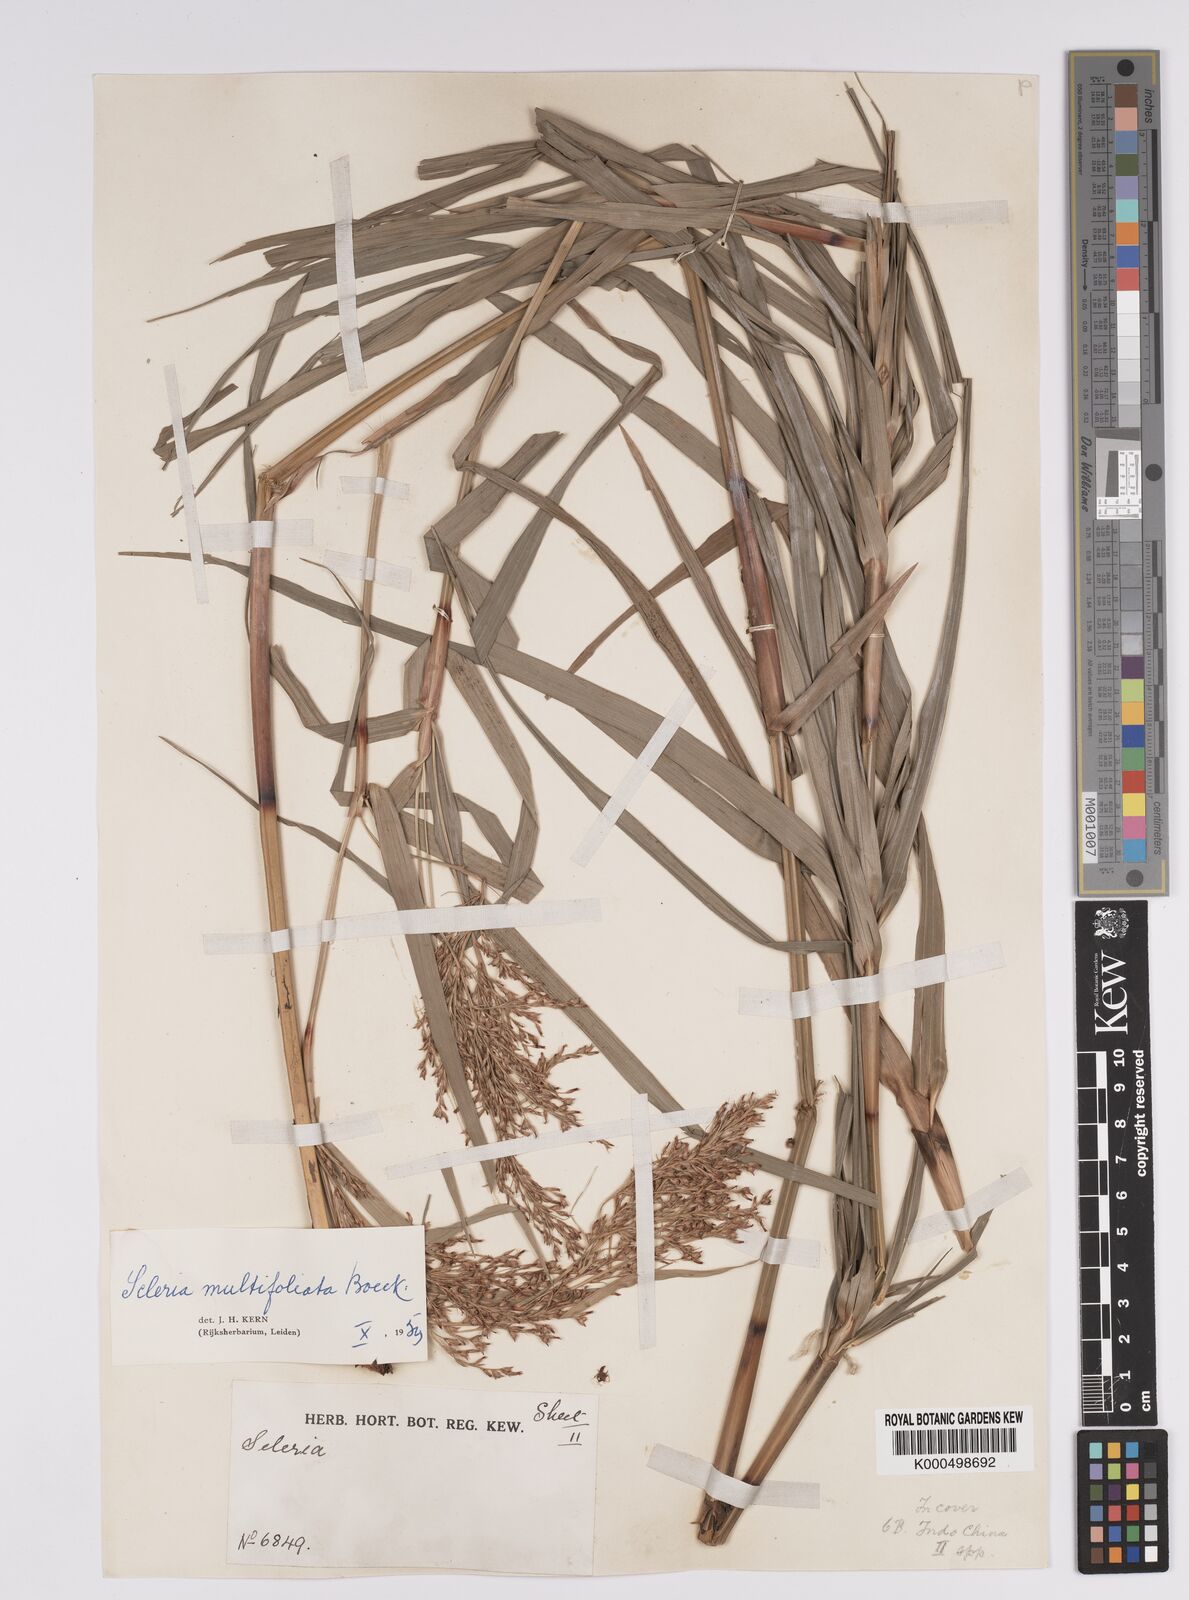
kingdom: Plantae
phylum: Tracheophyta
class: Liliopsida
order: Poales
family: Cyperaceae
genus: Scleria
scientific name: Scleria purpurascens
